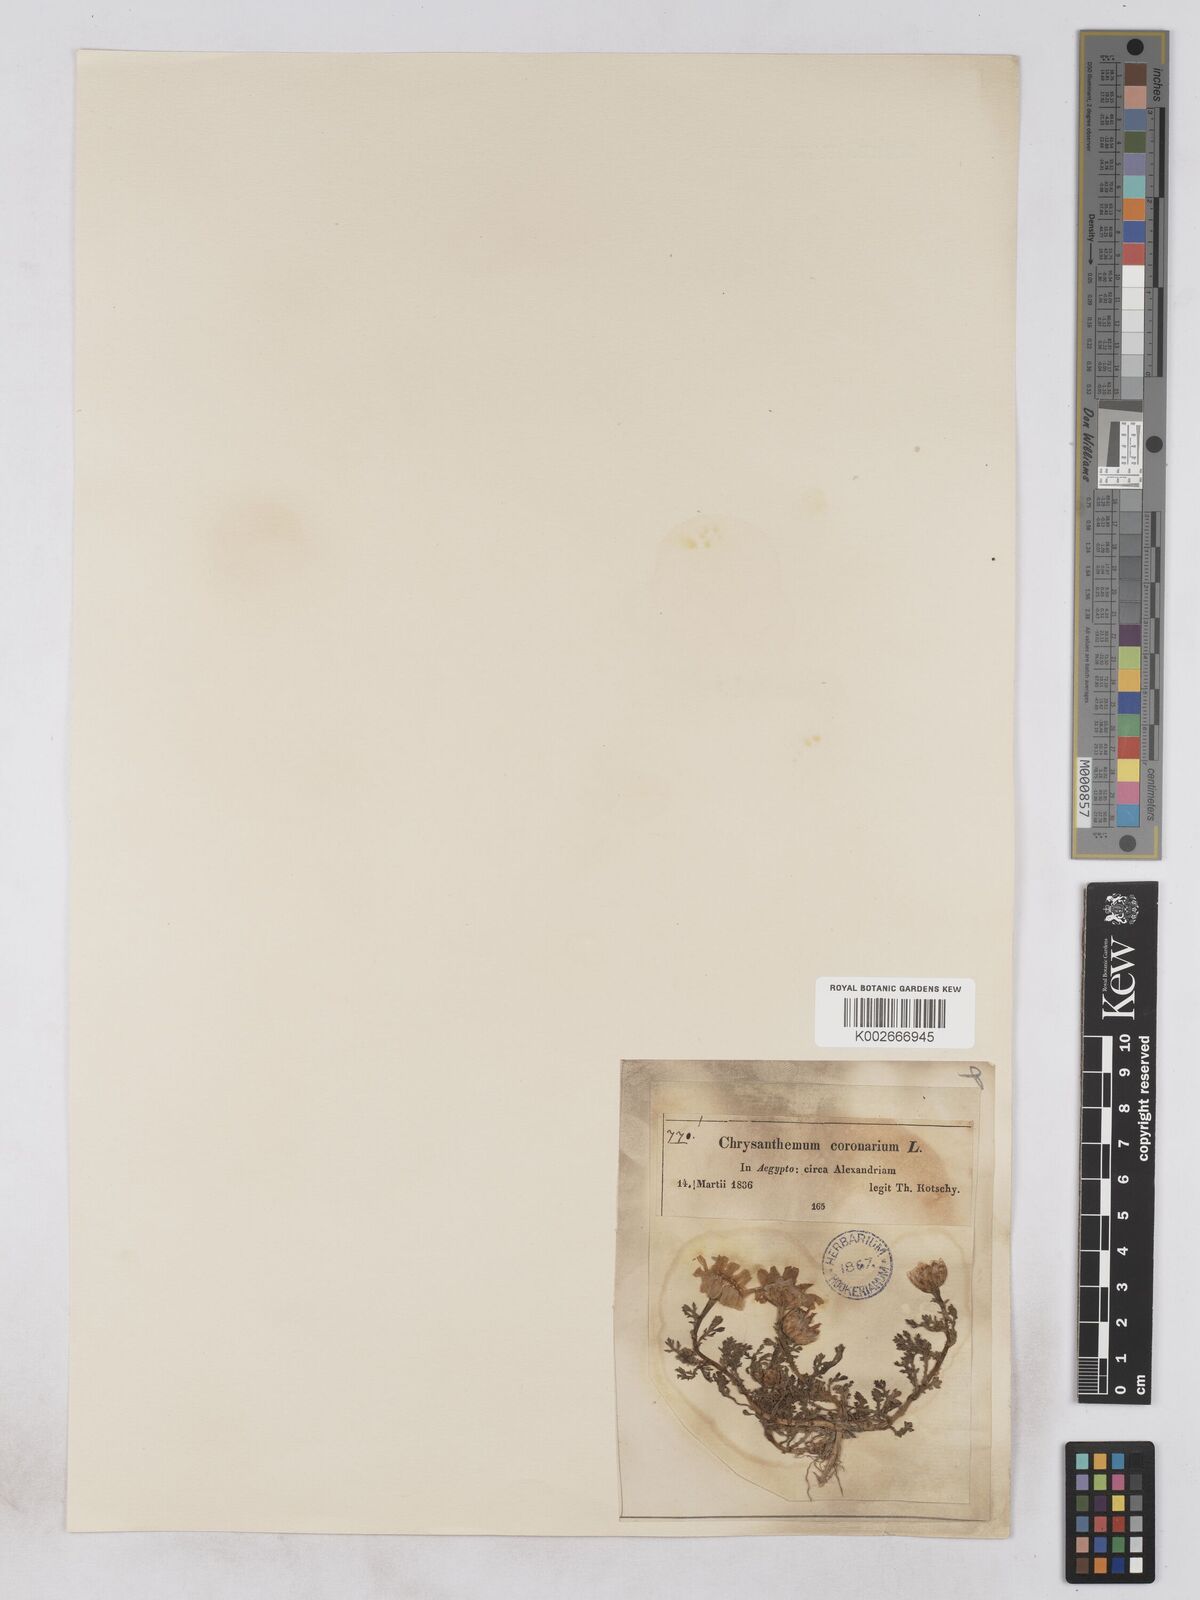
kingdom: Plantae
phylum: Tracheophyta
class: Magnoliopsida
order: Asterales
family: Asteraceae
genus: Glebionis
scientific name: Glebionis coronaria
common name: Crowndaisy
